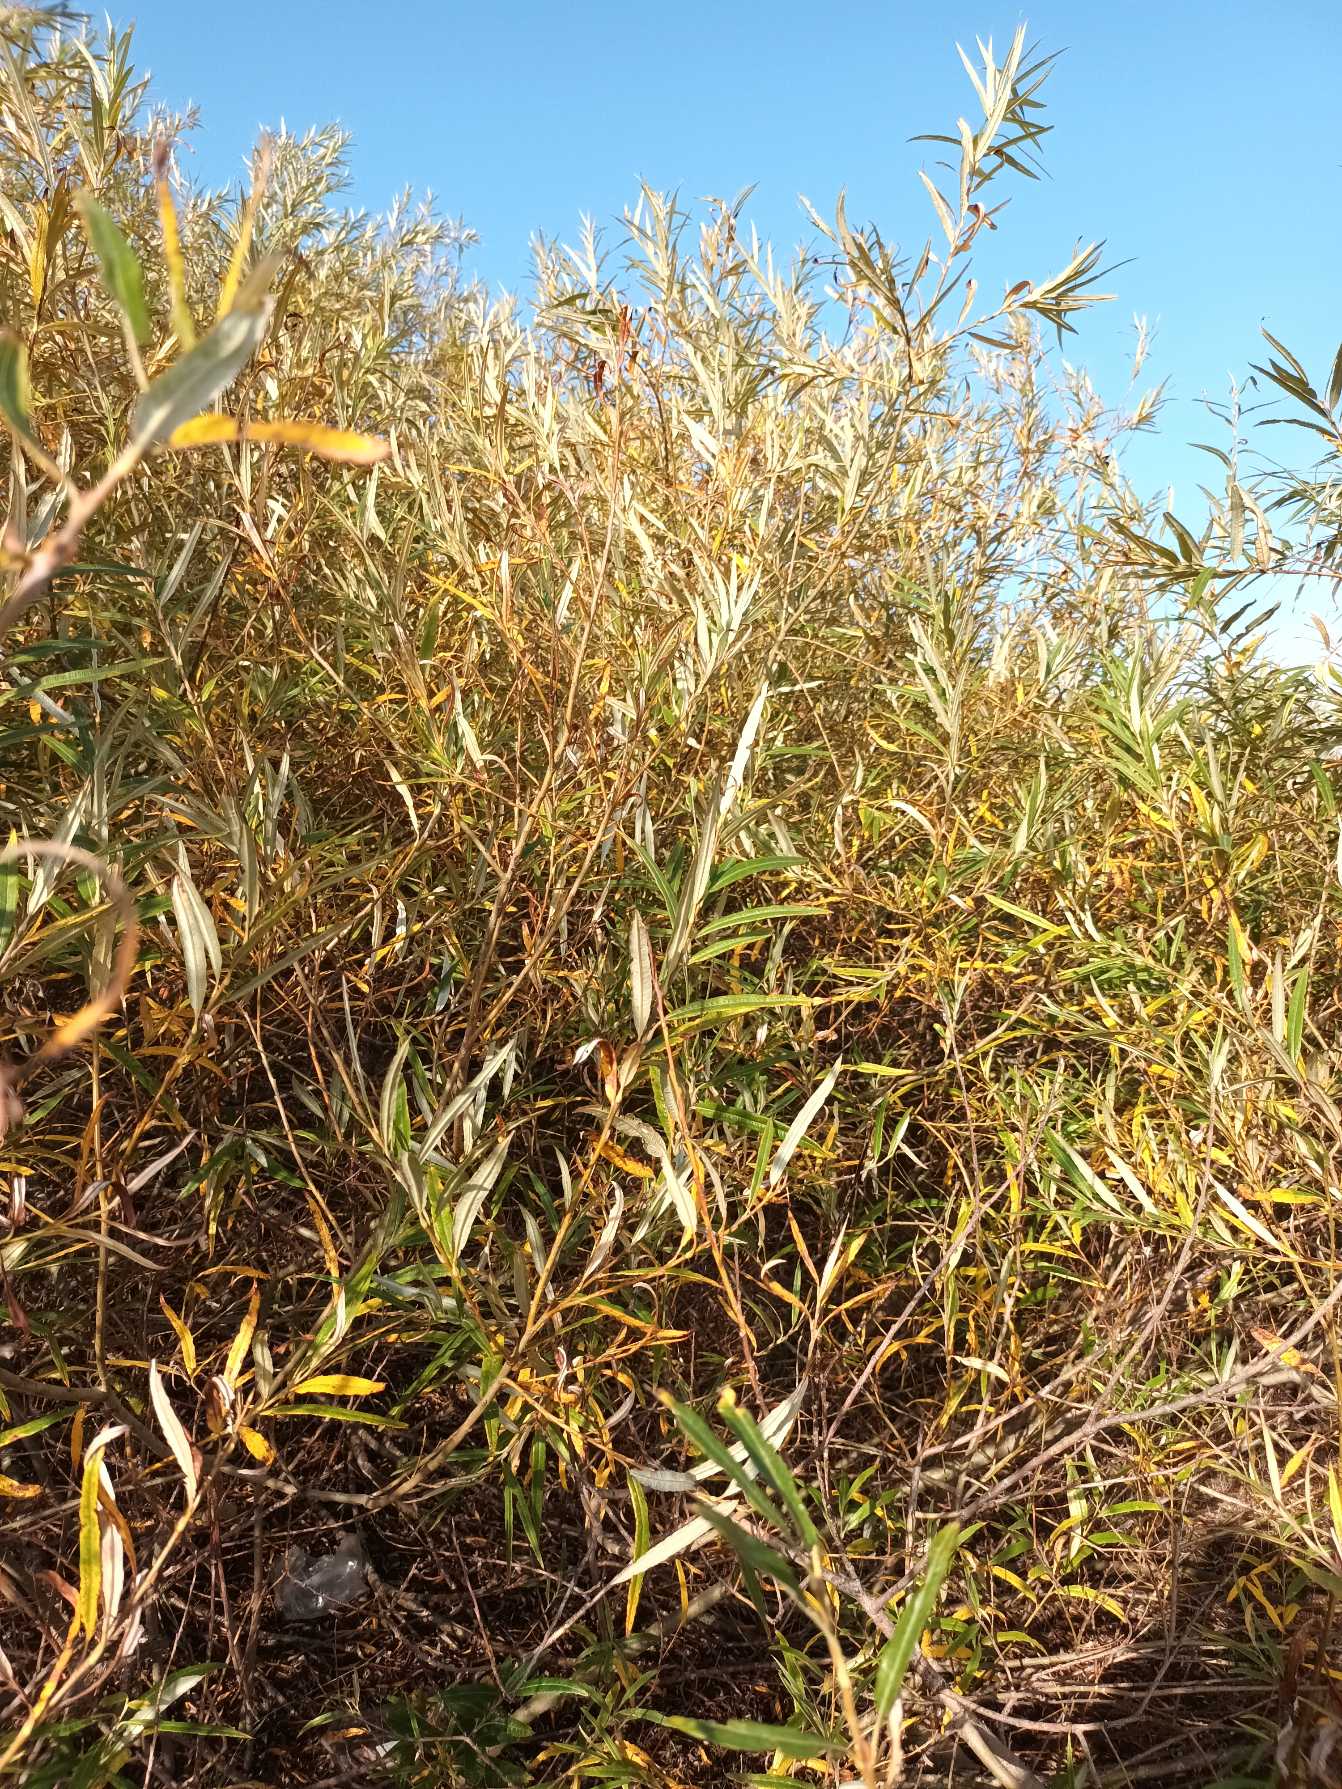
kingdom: Plantae
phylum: Tracheophyta
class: Magnoliopsida
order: Malpighiales
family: Salicaceae
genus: Salix
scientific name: Salix viminalis
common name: Bånd-pil
